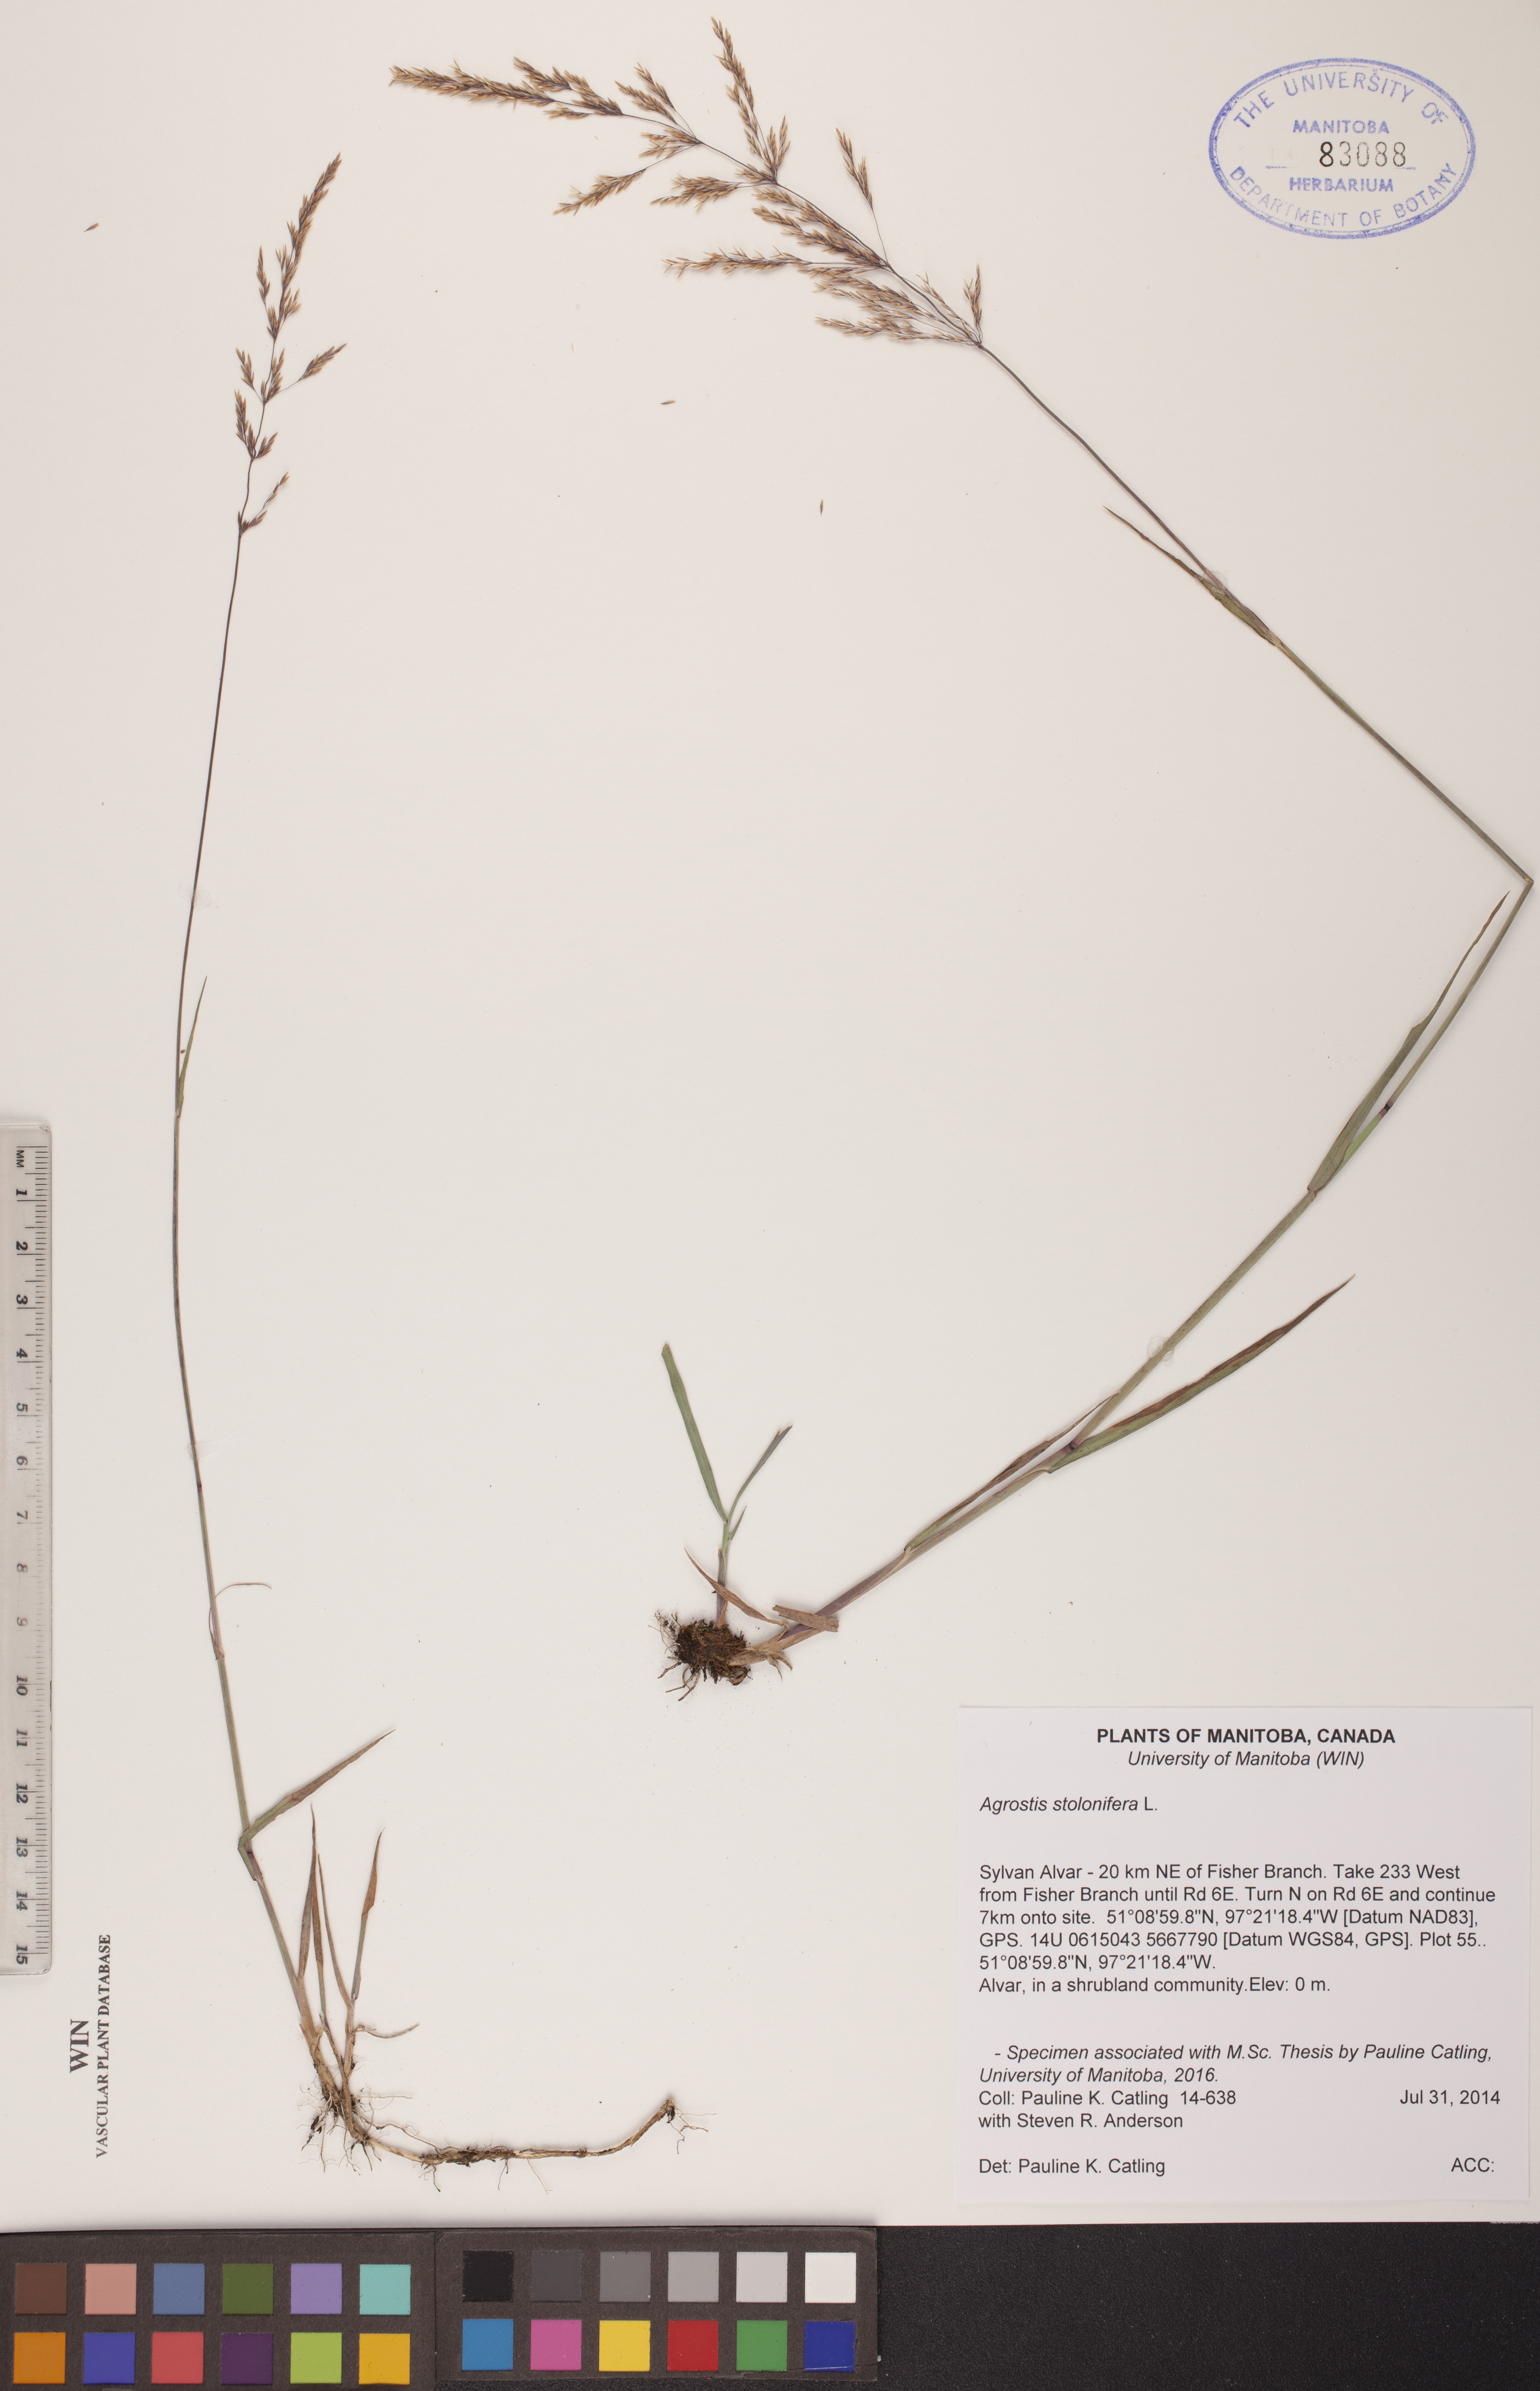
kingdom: Plantae
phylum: Tracheophyta
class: Liliopsida
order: Poales
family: Poaceae
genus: Agrostis
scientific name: Agrostis stolonifera
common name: Creeping bentgrass
